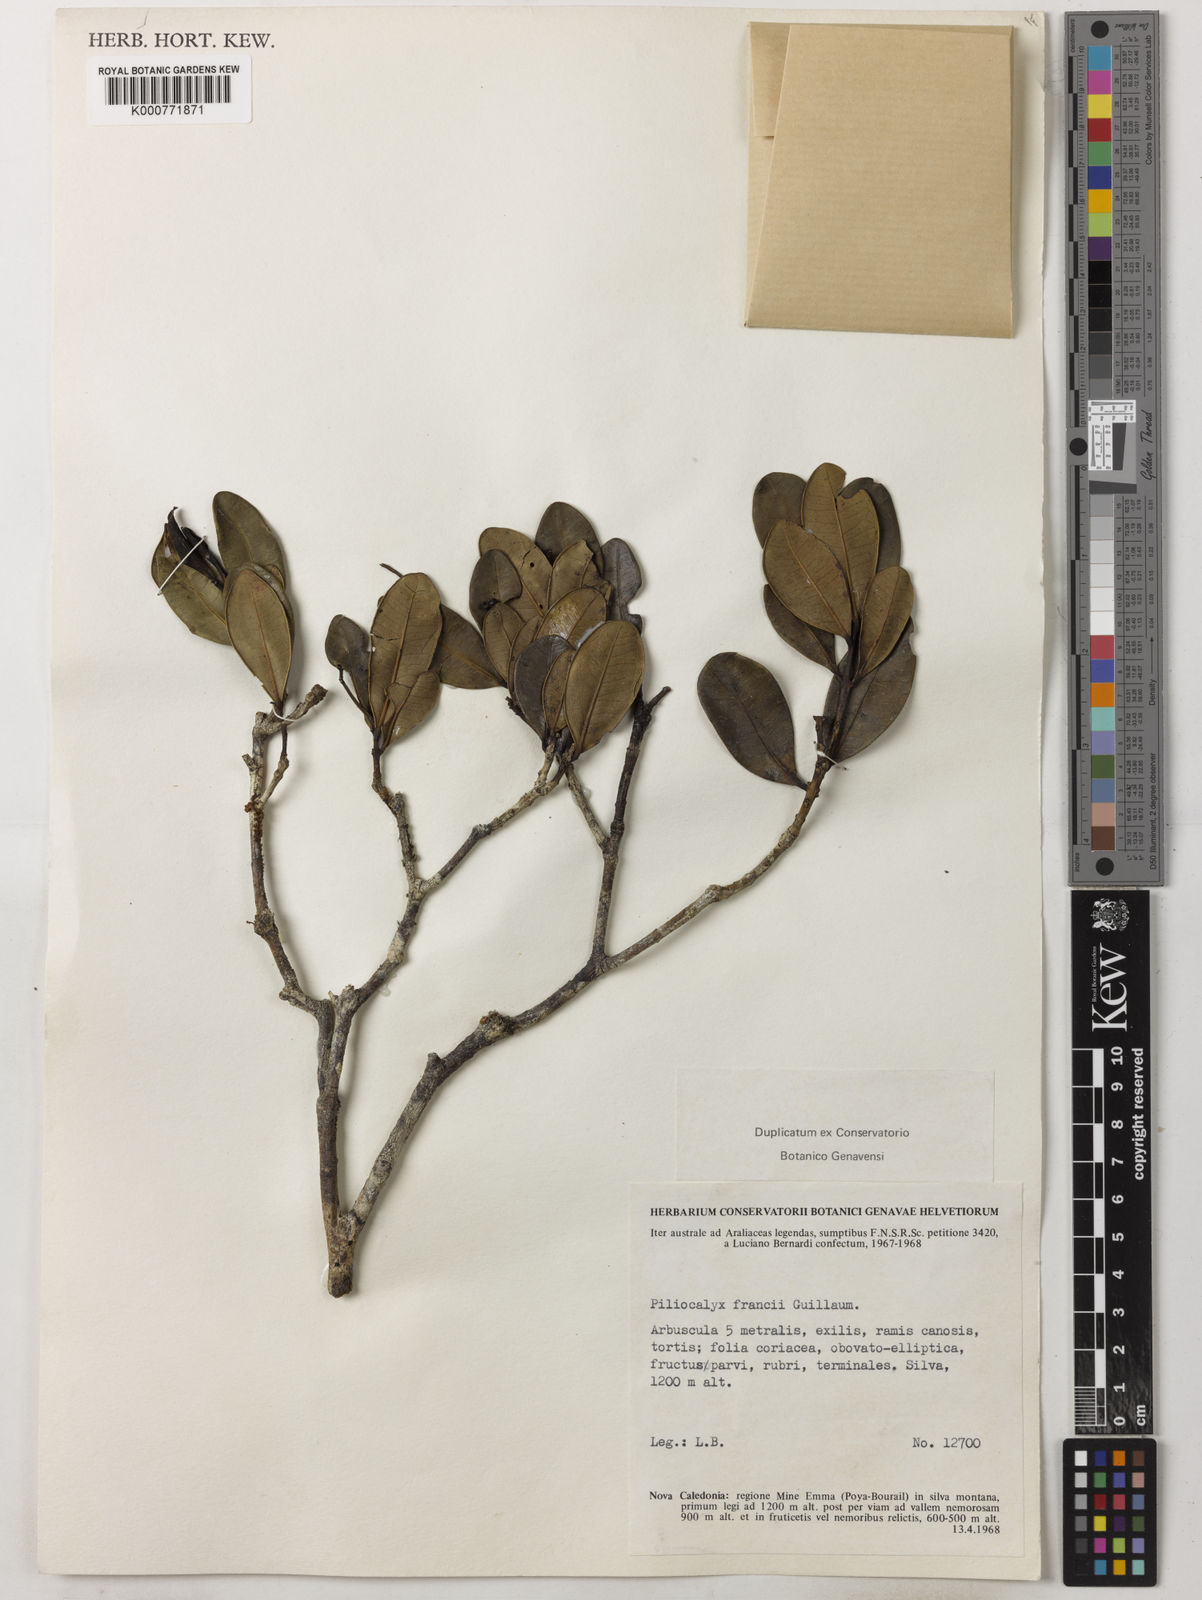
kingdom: Plantae
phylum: Tracheophyta
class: Magnoliopsida
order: Myrtales
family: Myrtaceae
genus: Syzygium
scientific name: Syzygium francii
